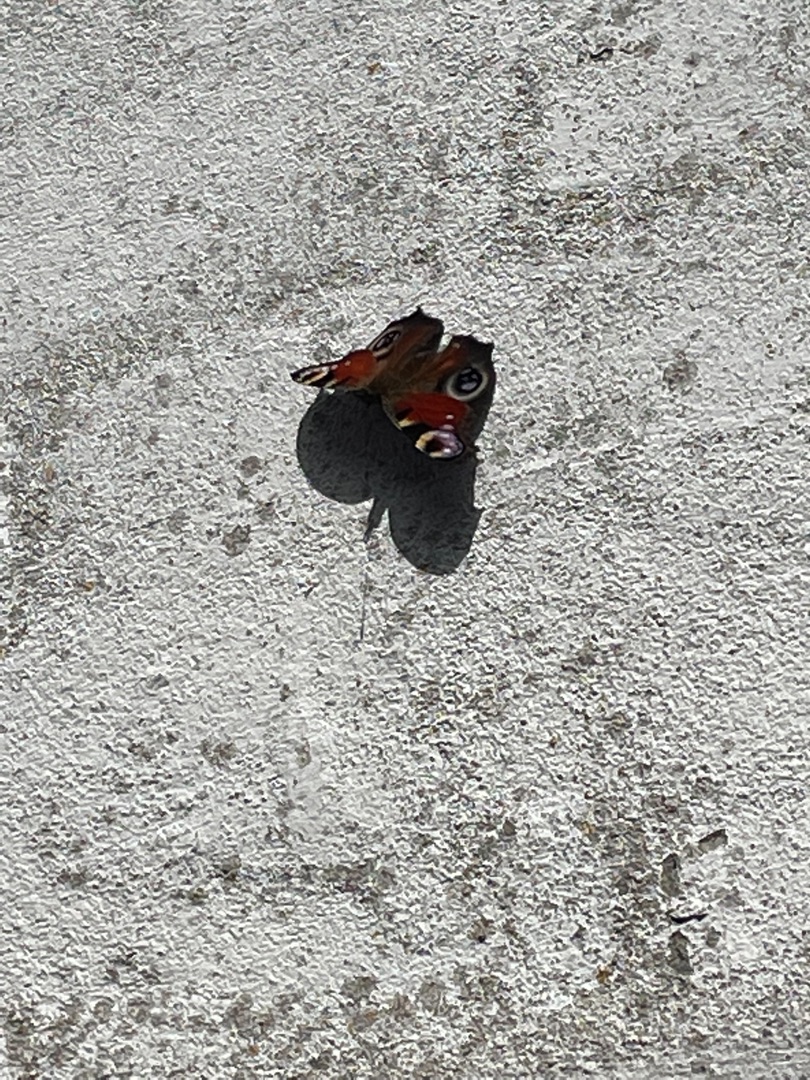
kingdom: Animalia
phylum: Arthropoda
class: Insecta
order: Lepidoptera
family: Nymphalidae
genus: Aglais
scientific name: Aglais io
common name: Dagpåfugleøje
